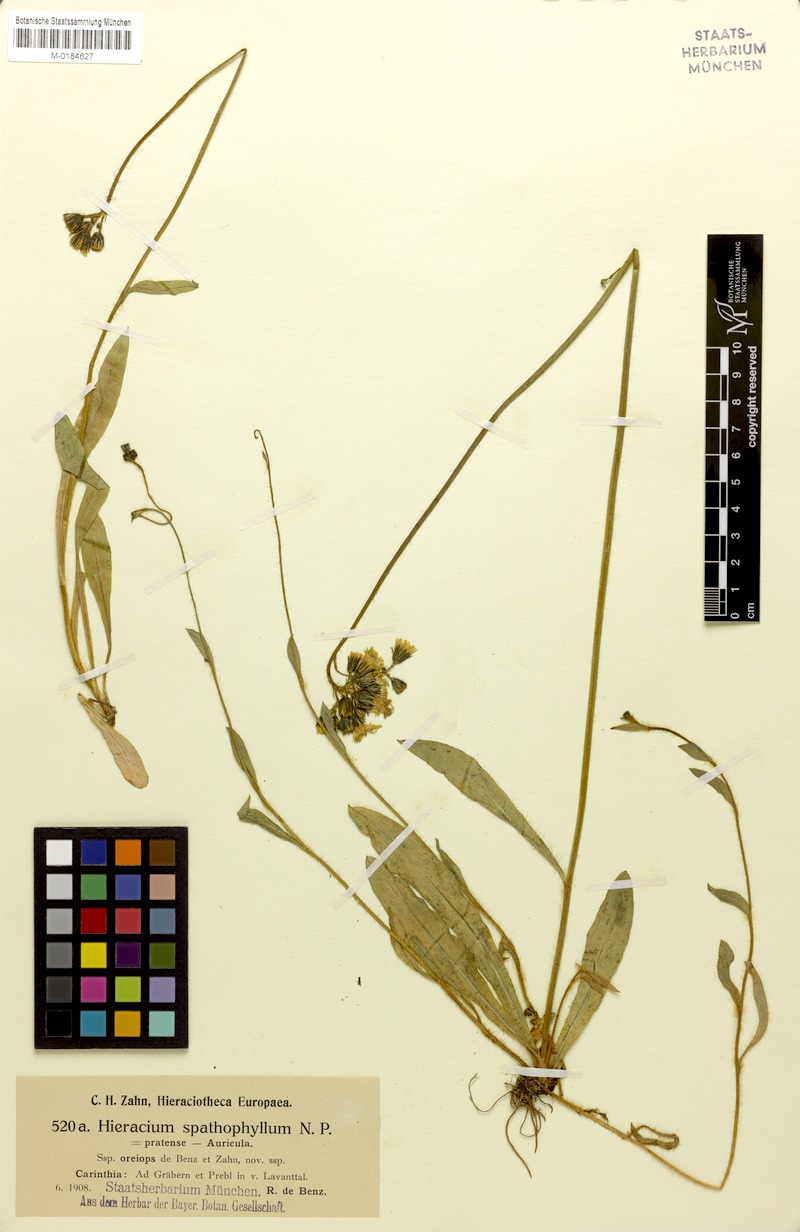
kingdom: Plantae
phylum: Tracheophyta
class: Magnoliopsida
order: Asterales
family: Asteraceae
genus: Pilosella
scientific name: Pilosella floribunda
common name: Glaucous hawkweed
